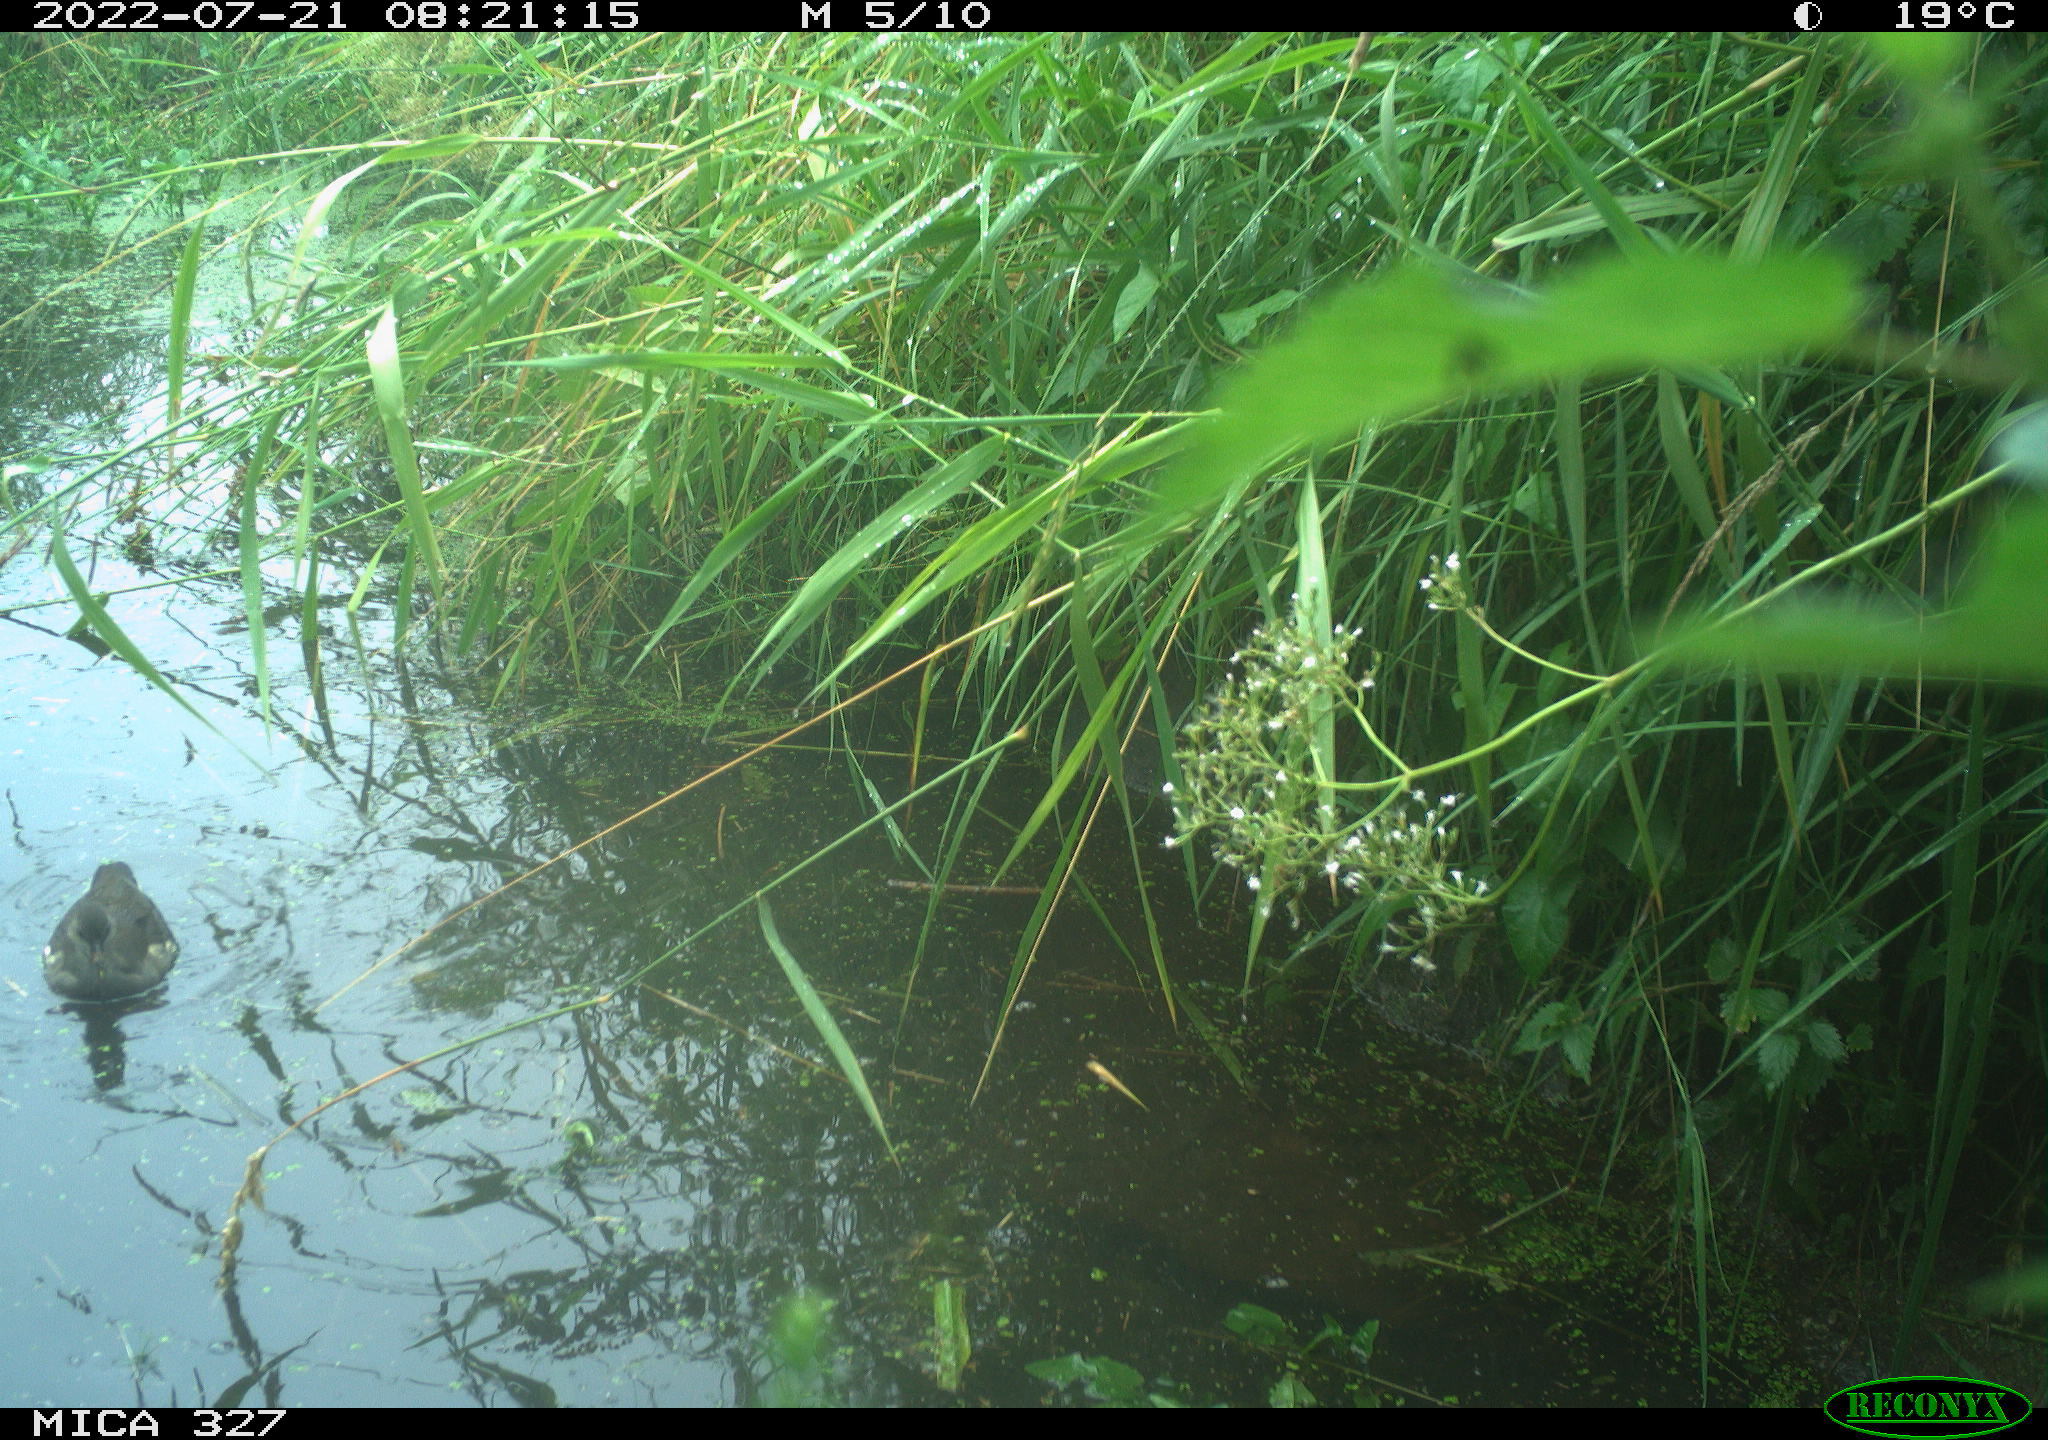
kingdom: Animalia
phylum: Chordata
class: Aves
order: Gruiformes
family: Rallidae
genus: Gallinula
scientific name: Gallinula chloropus
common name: Common moorhen
